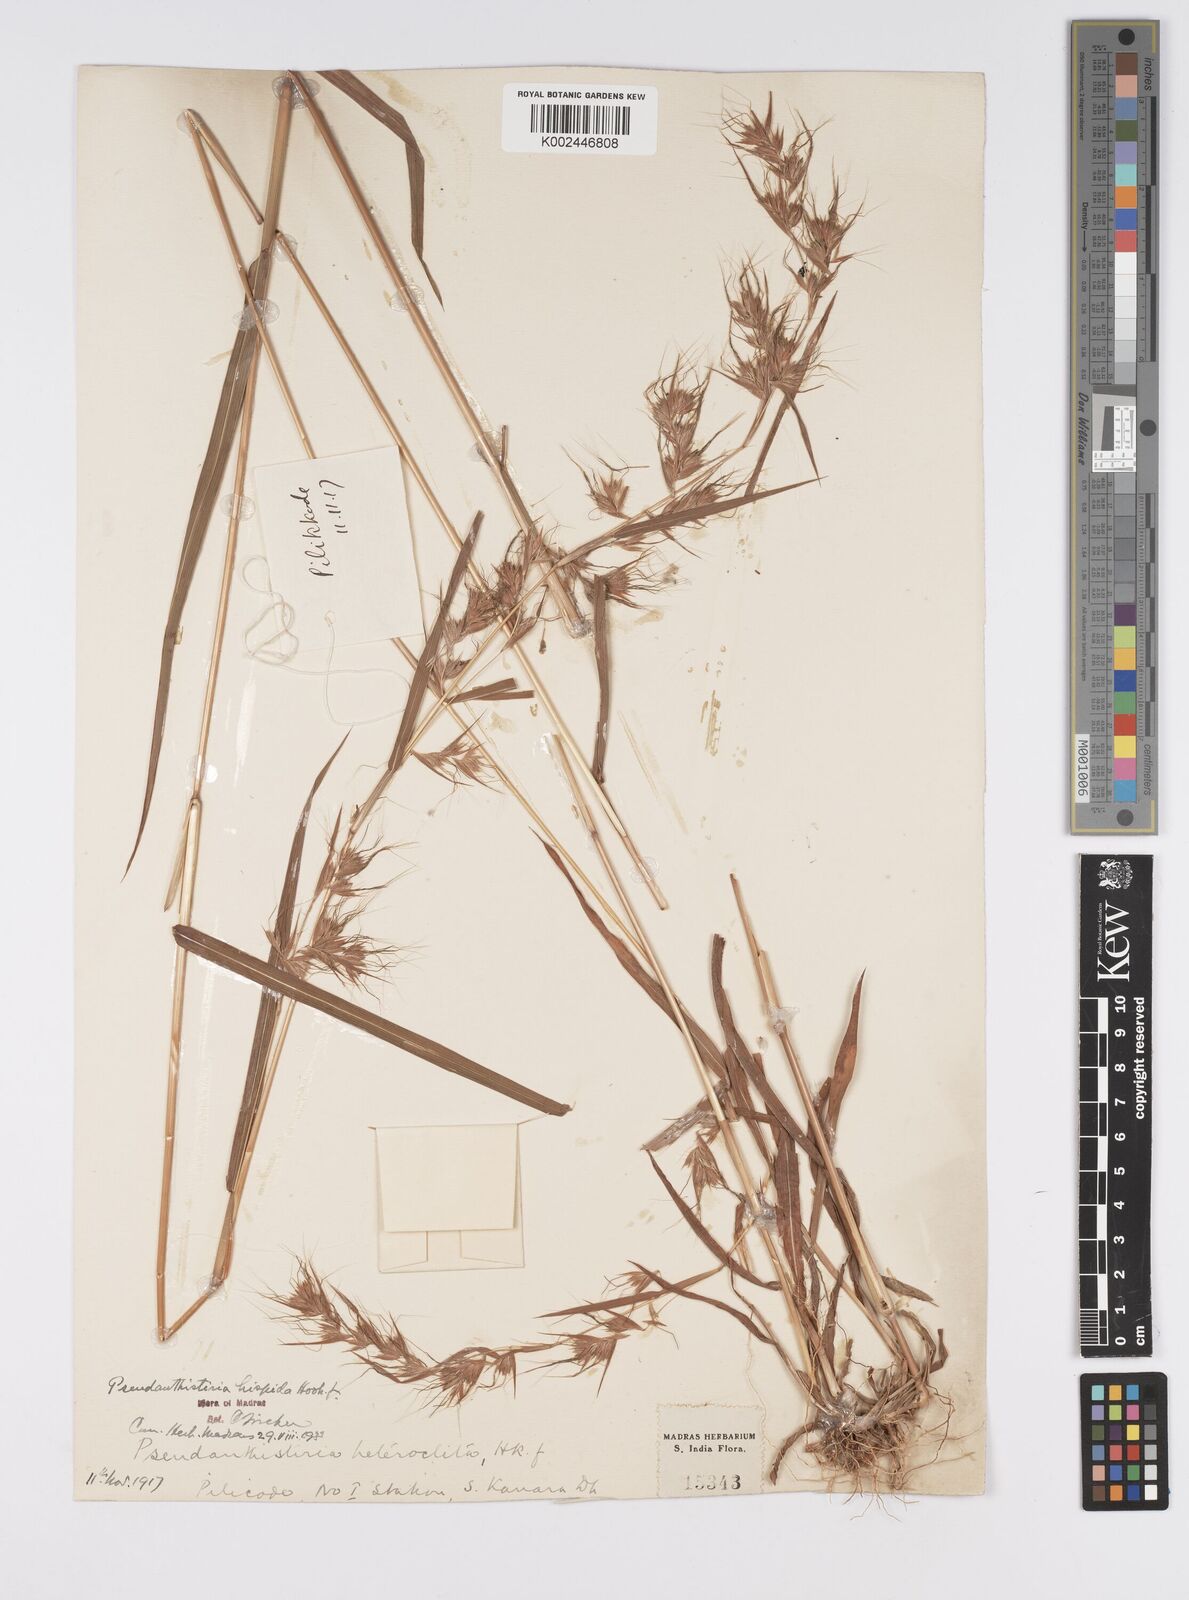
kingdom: Plantae
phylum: Tracheophyta
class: Liliopsida
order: Poales
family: Poaceae
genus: Pseudanthistiria
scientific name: Pseudanthistiria heteroclita
